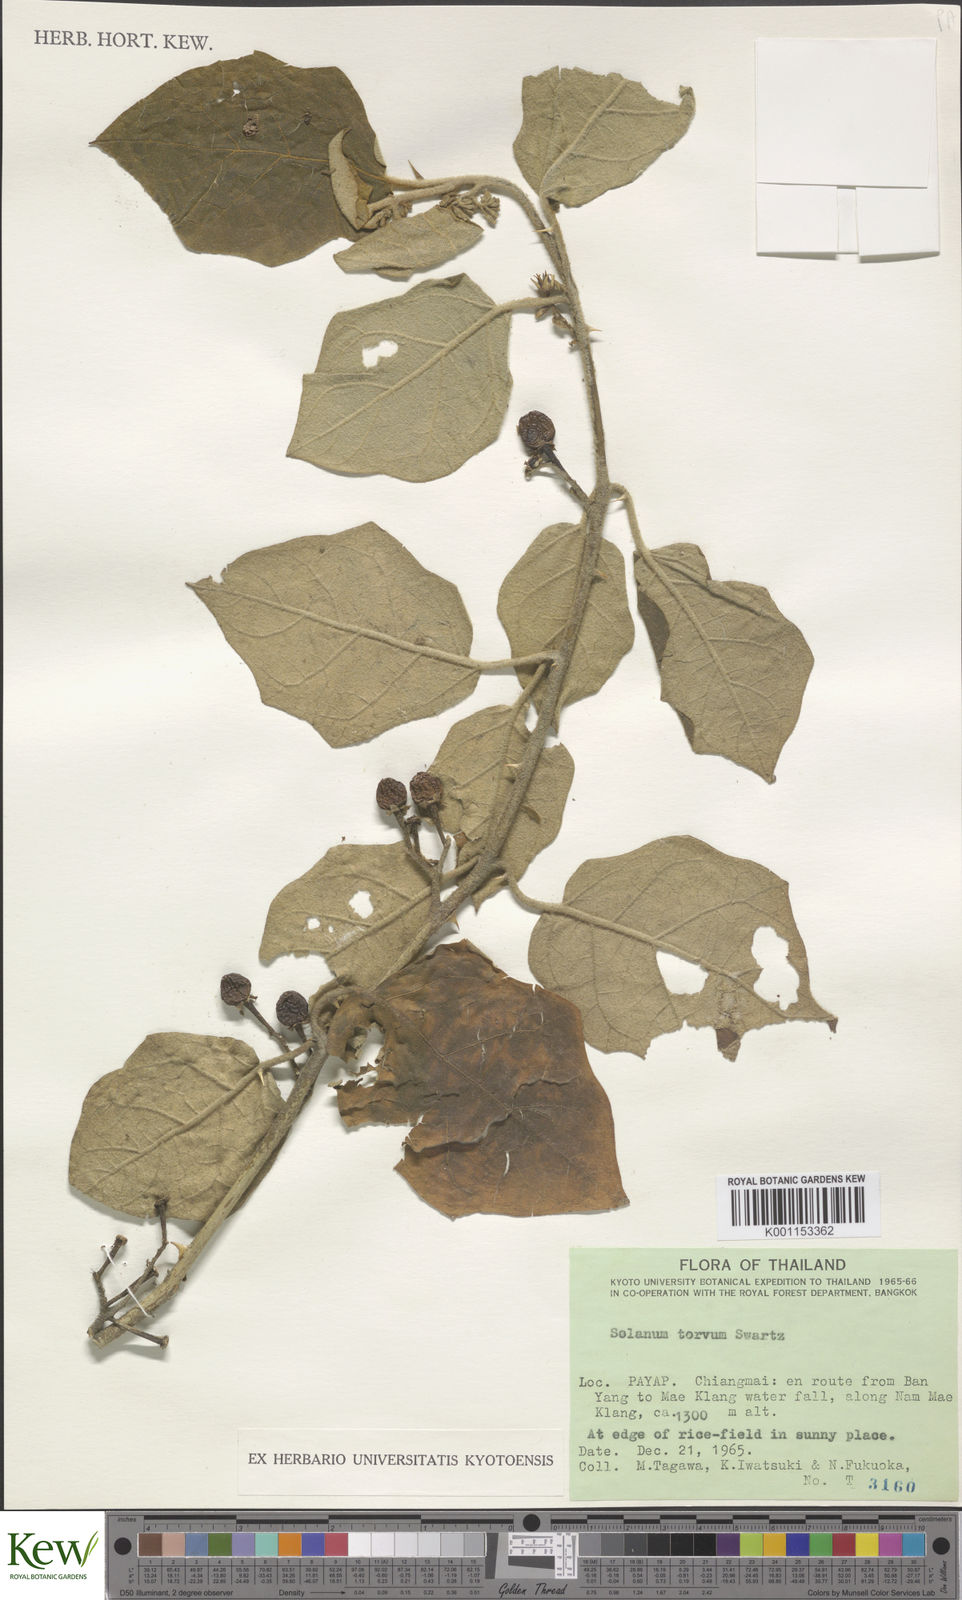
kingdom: Plantae
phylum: Tracheophyta
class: Magnoliopsida
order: Solanales
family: Solanaceae
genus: Solanum
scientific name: Solanum torvum
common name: Turkey berry
